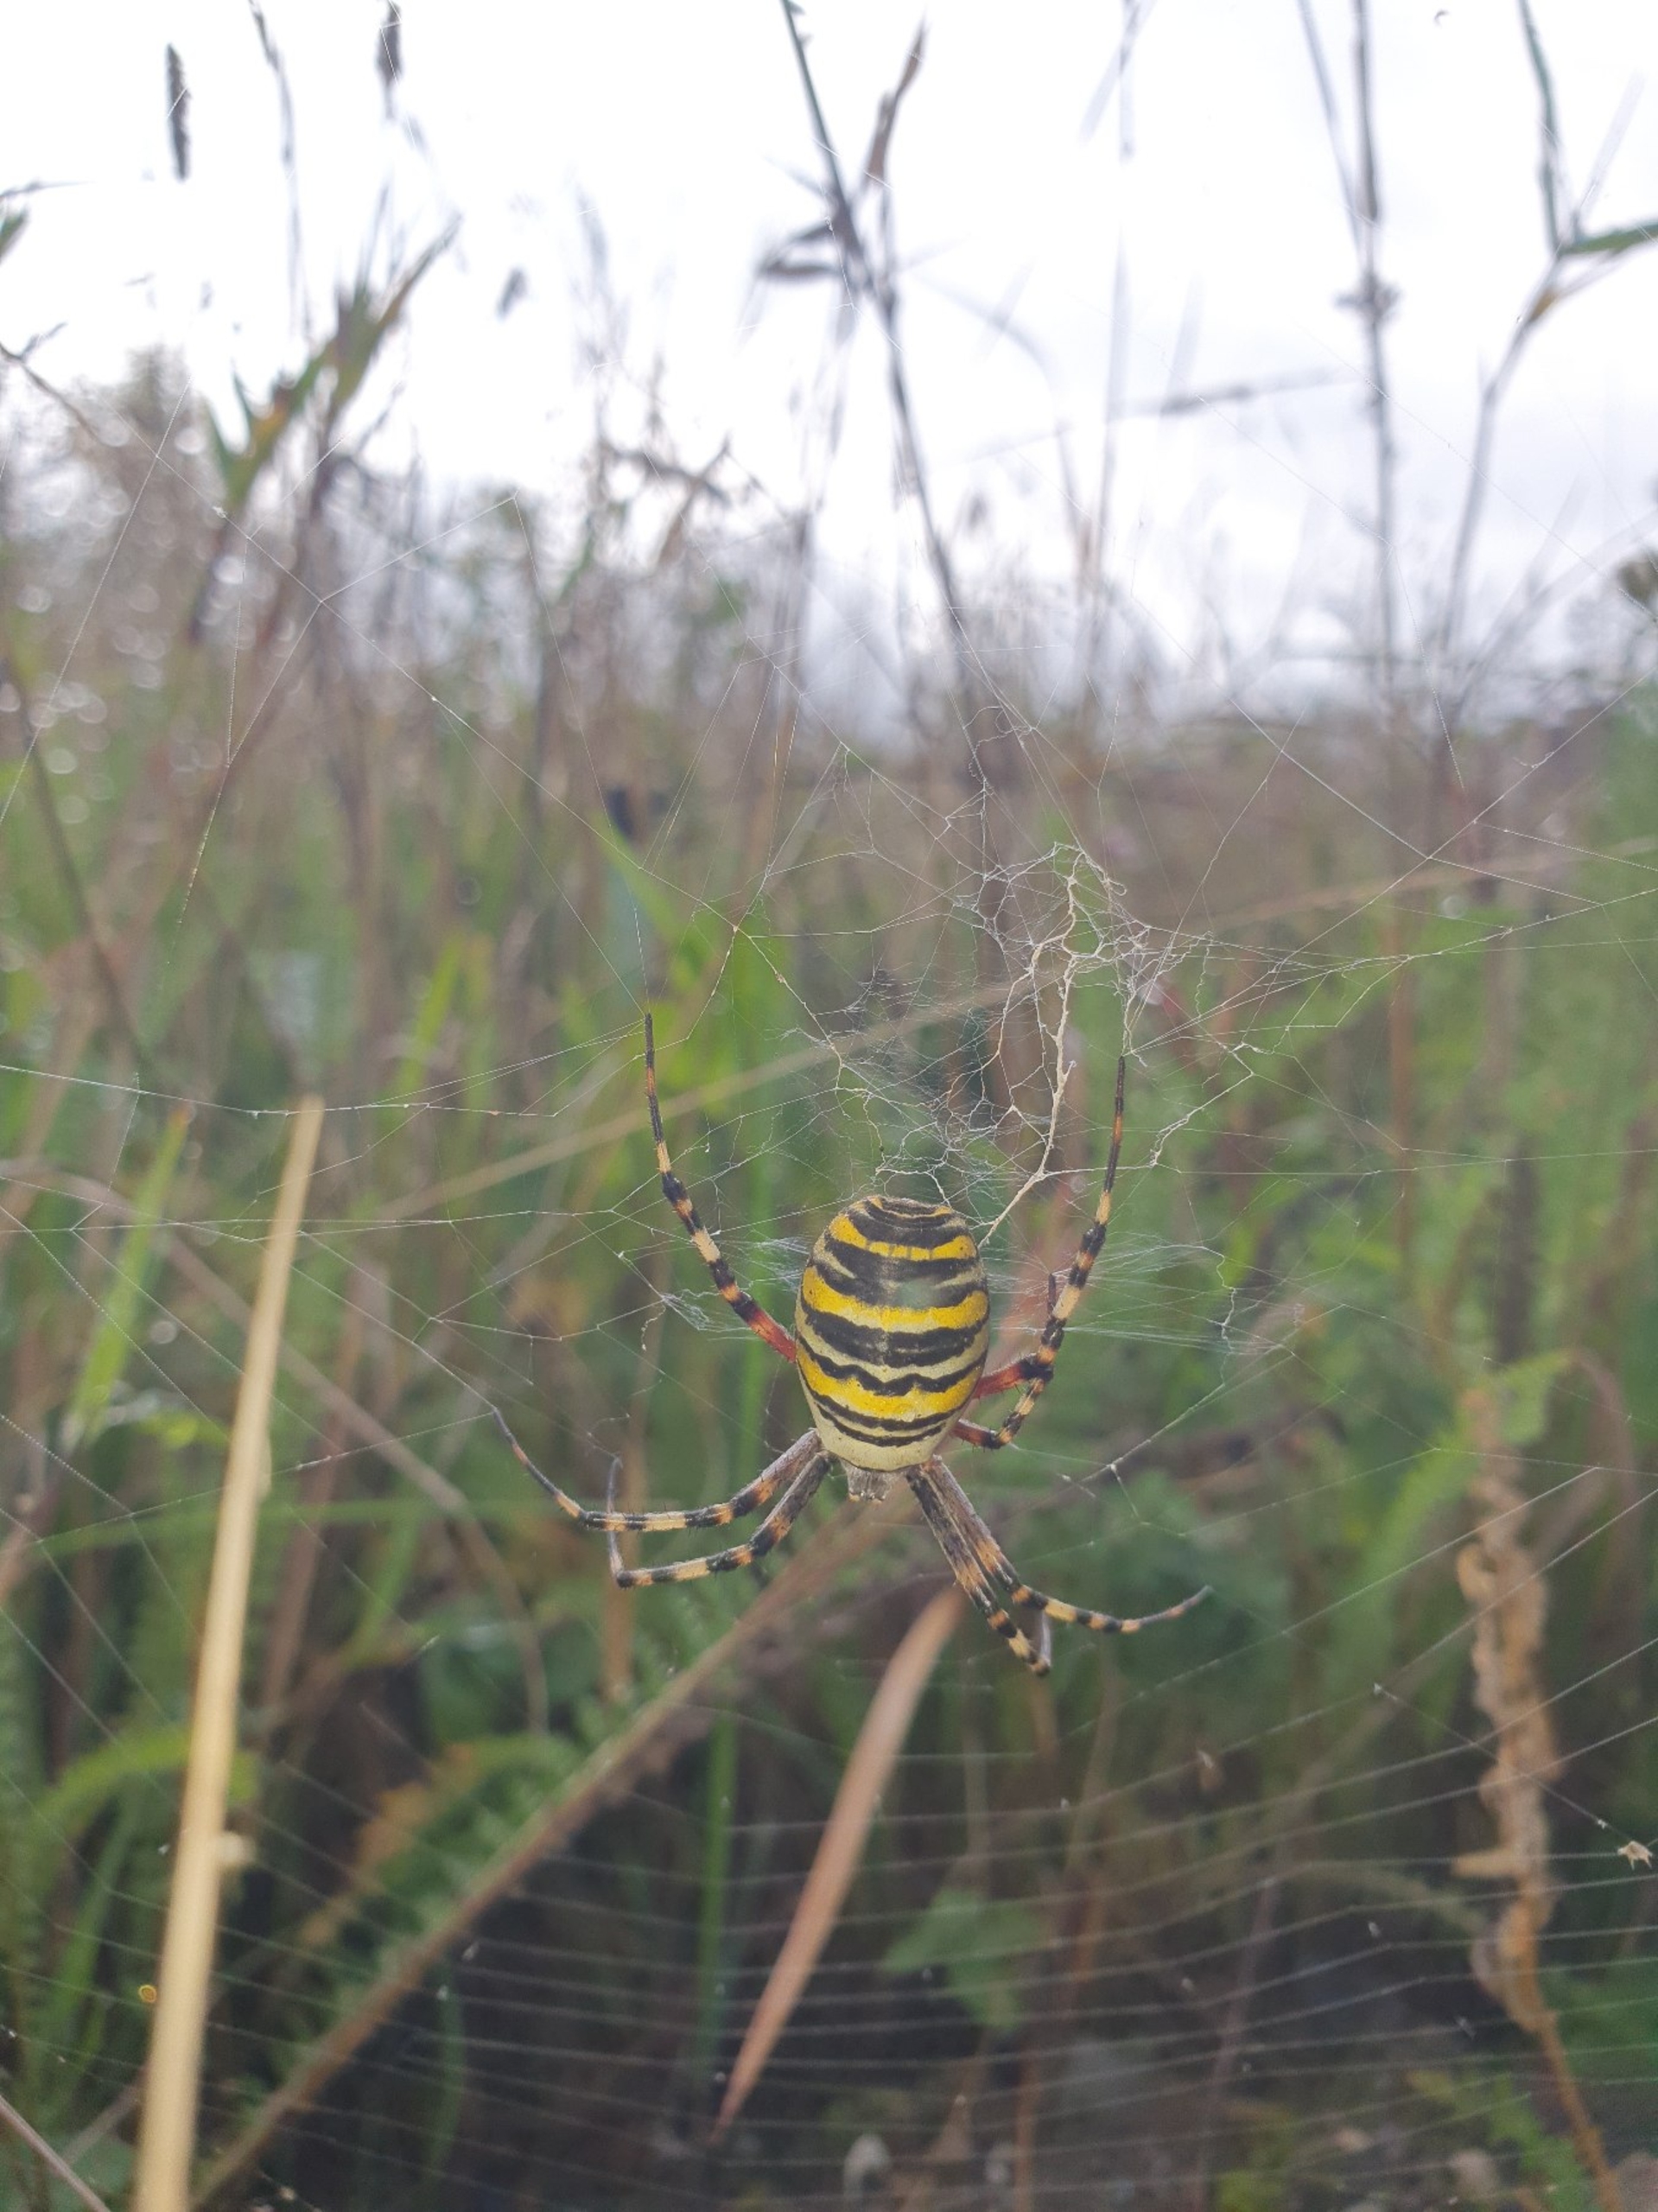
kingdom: Animalia
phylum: Arthropoda
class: Arachnida
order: Araneae
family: Araneidae
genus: Argiope
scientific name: Argiope bruennichi
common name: Hvepseedderkop
